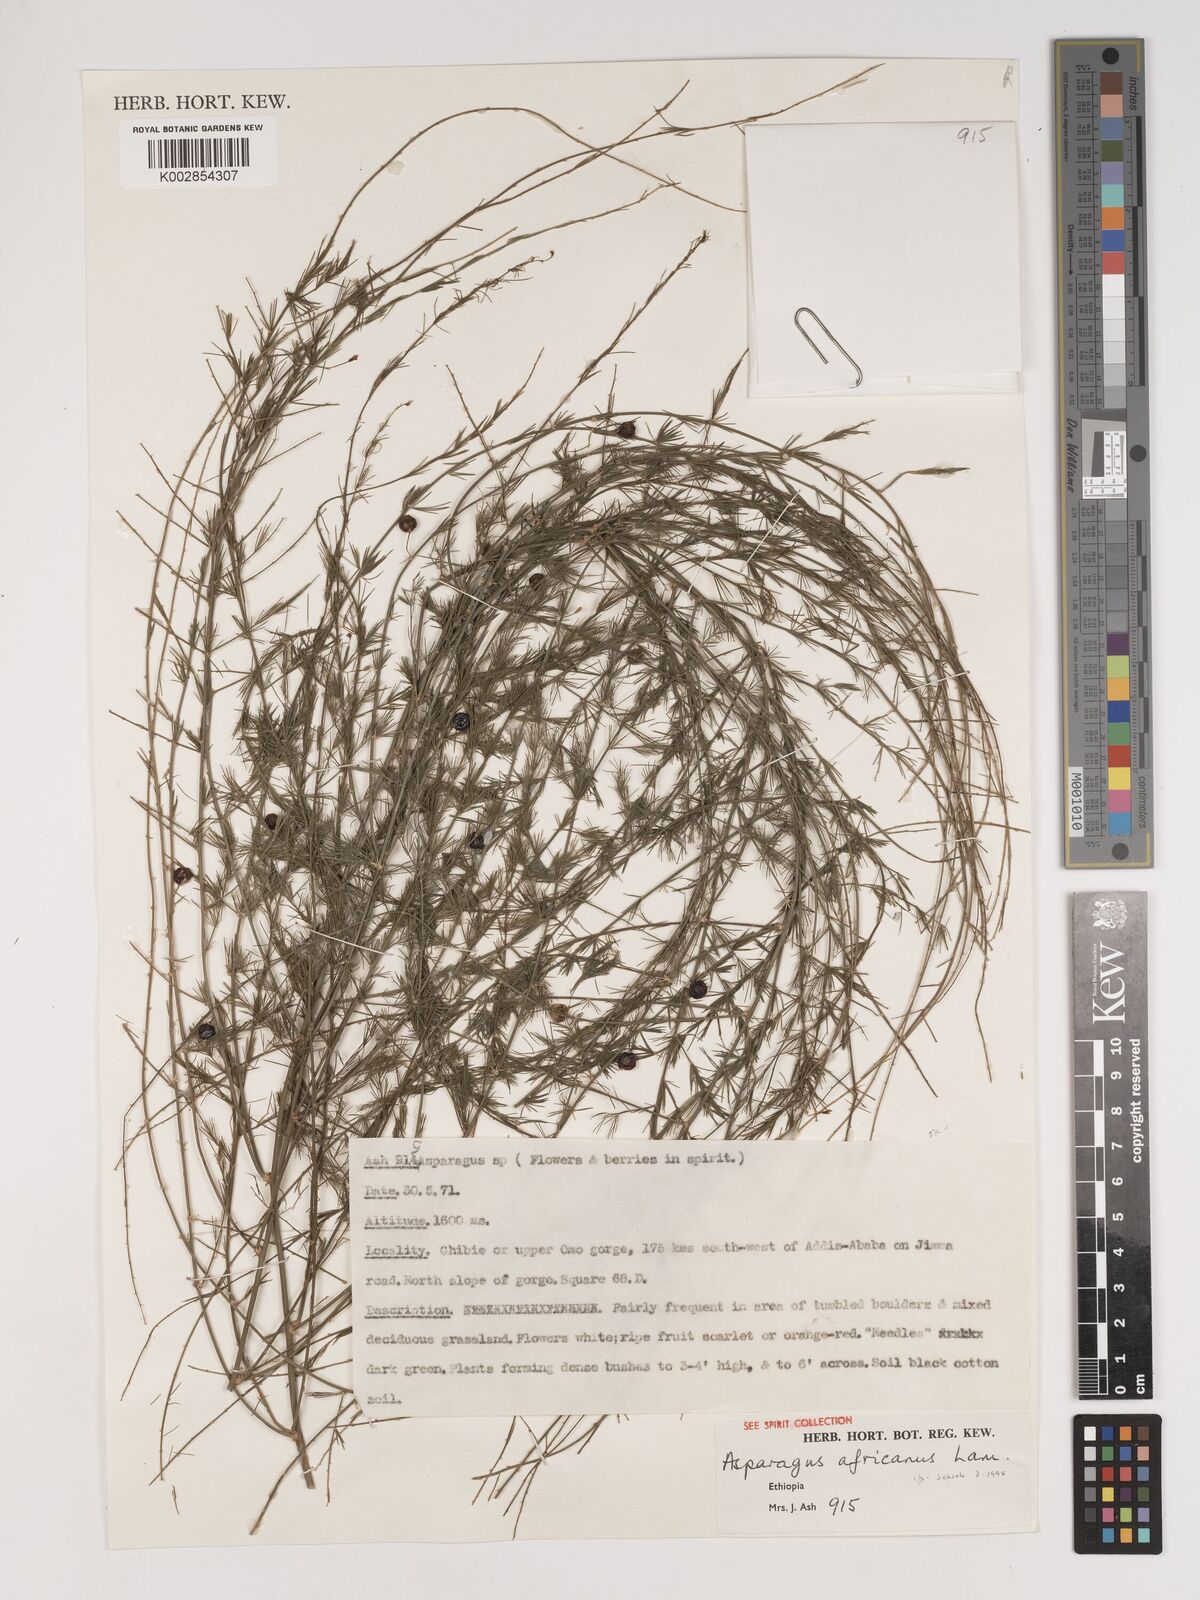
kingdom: Plantae
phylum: Tracheophyta
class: Liliopsida
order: Asparagales
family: Asparagaceae
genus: Asparagus
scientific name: Asparagus africanus
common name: Asparagus-fern
